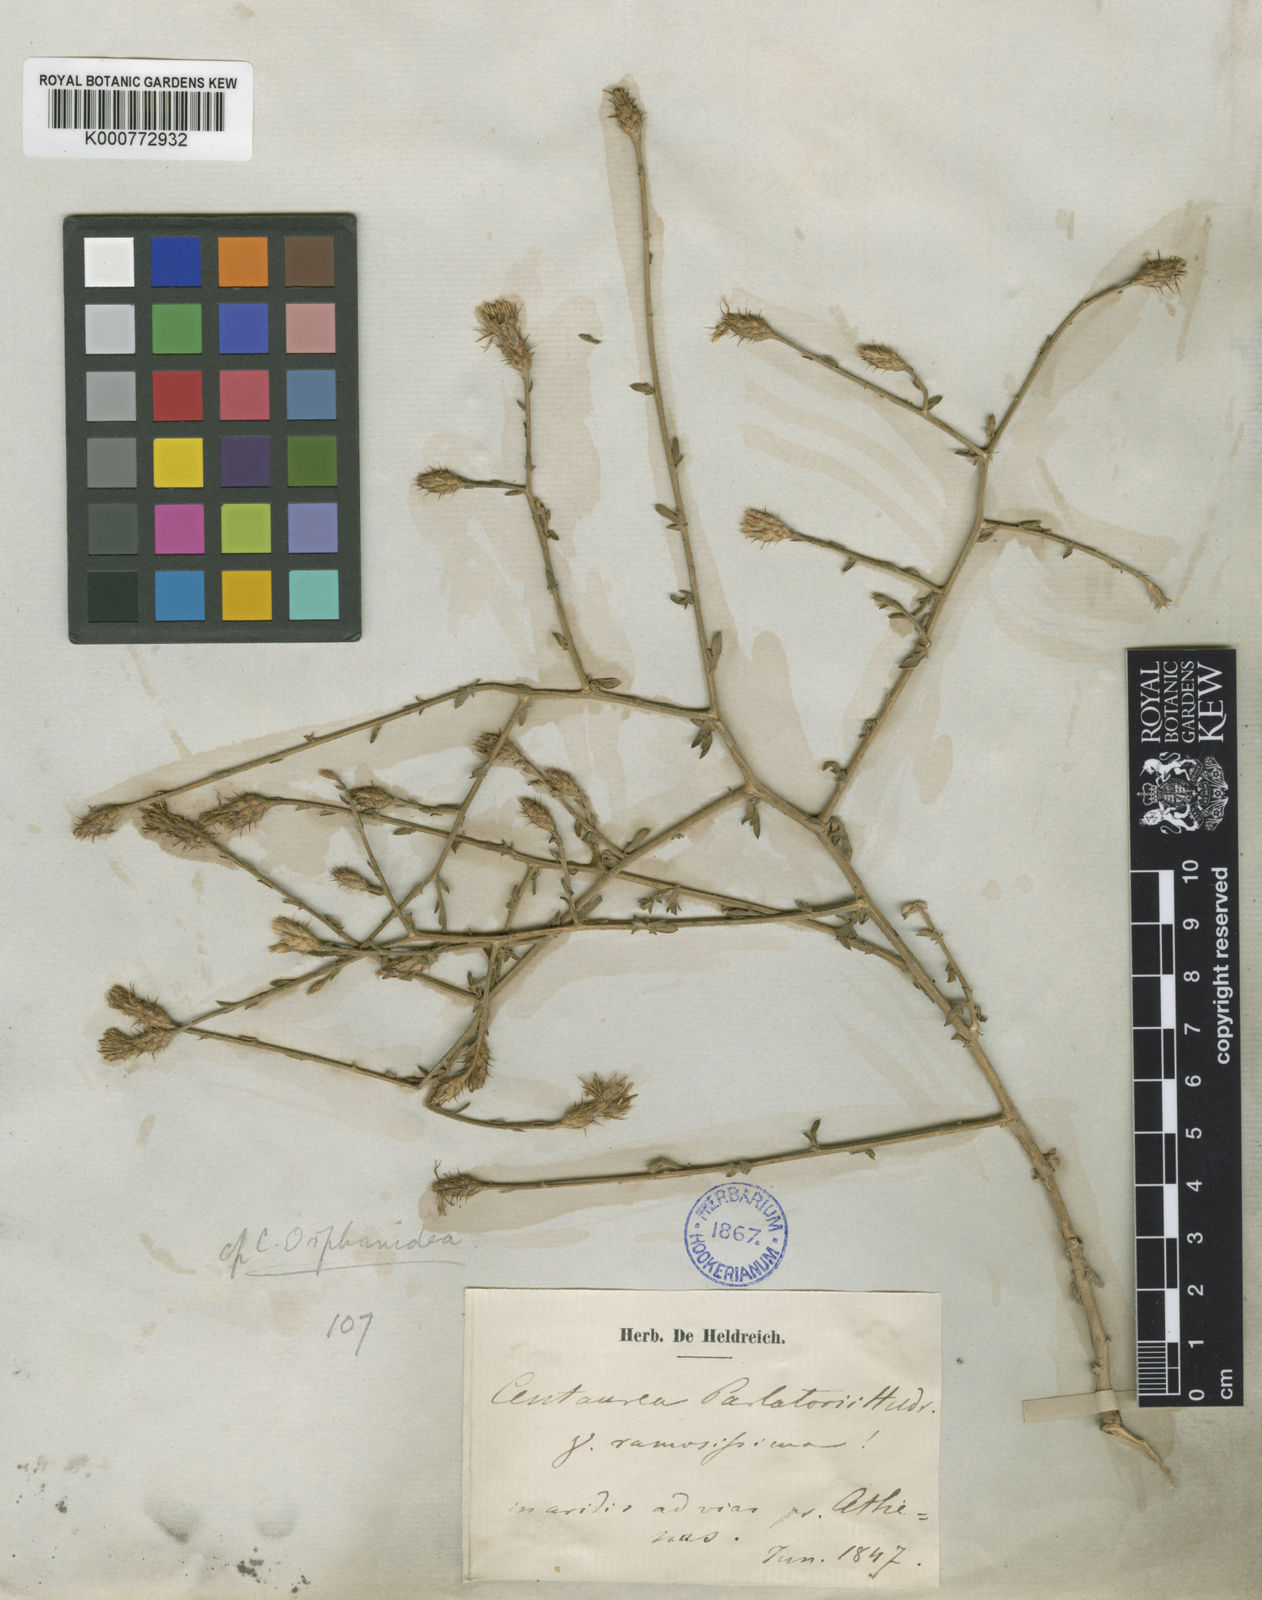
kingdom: Plantae
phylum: Tracheophyta
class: Magnoliopsida
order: Asterales
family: Asteraceae
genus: Centaurea
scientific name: Centaurea
